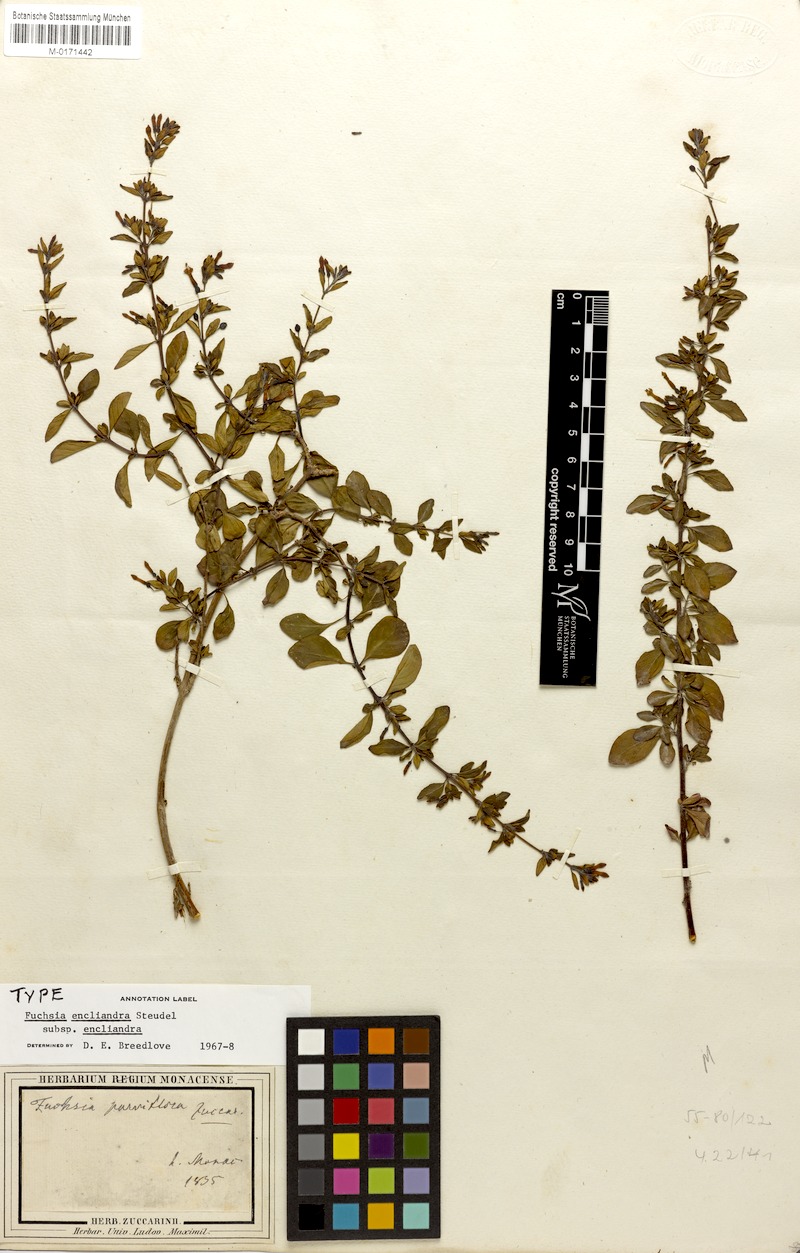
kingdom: Plantae
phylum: Tracheophyta
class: Magnoliopsida
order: Myrtales
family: Onagraceae
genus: Fuchsia
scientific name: Fuchsia encliandra
